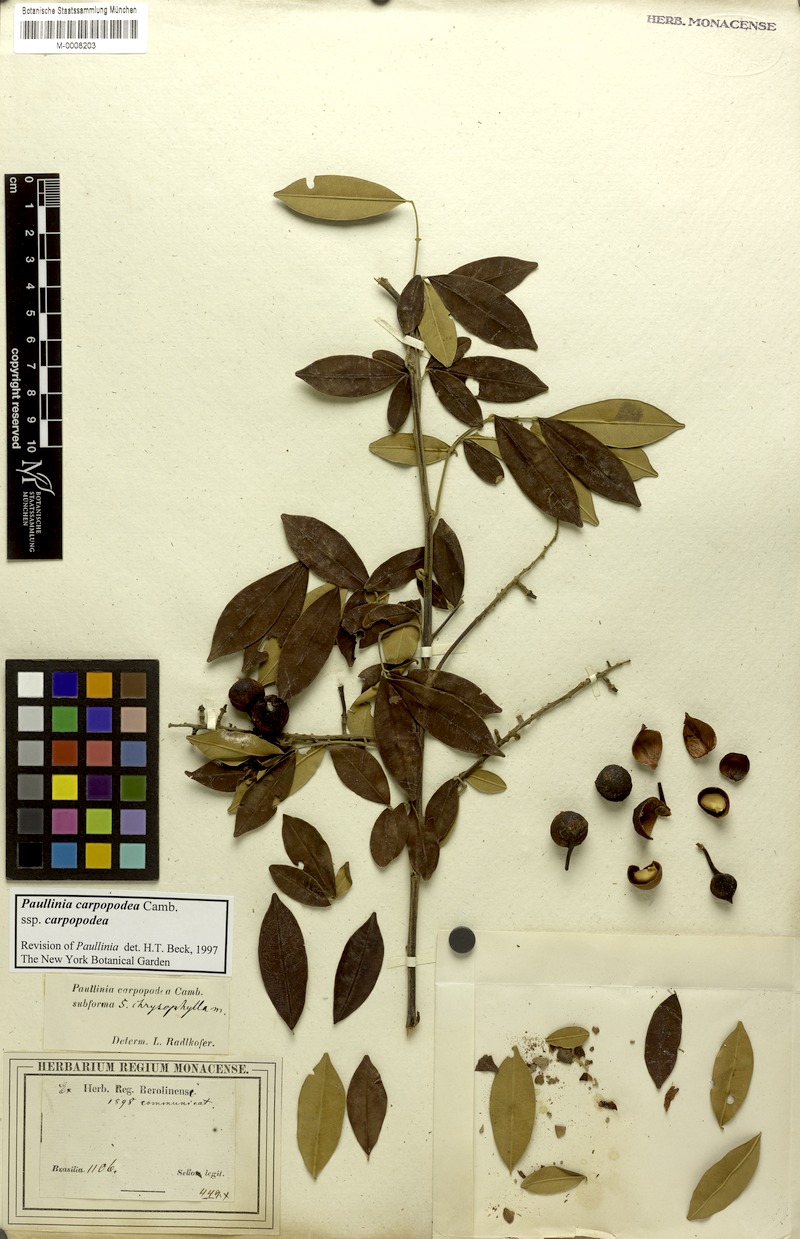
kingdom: Plantae
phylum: Tracheophyta
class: Magnoliopsida
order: Sapindales
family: Sapindaceae
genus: Paullinia
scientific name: Paullinia carpopoda
